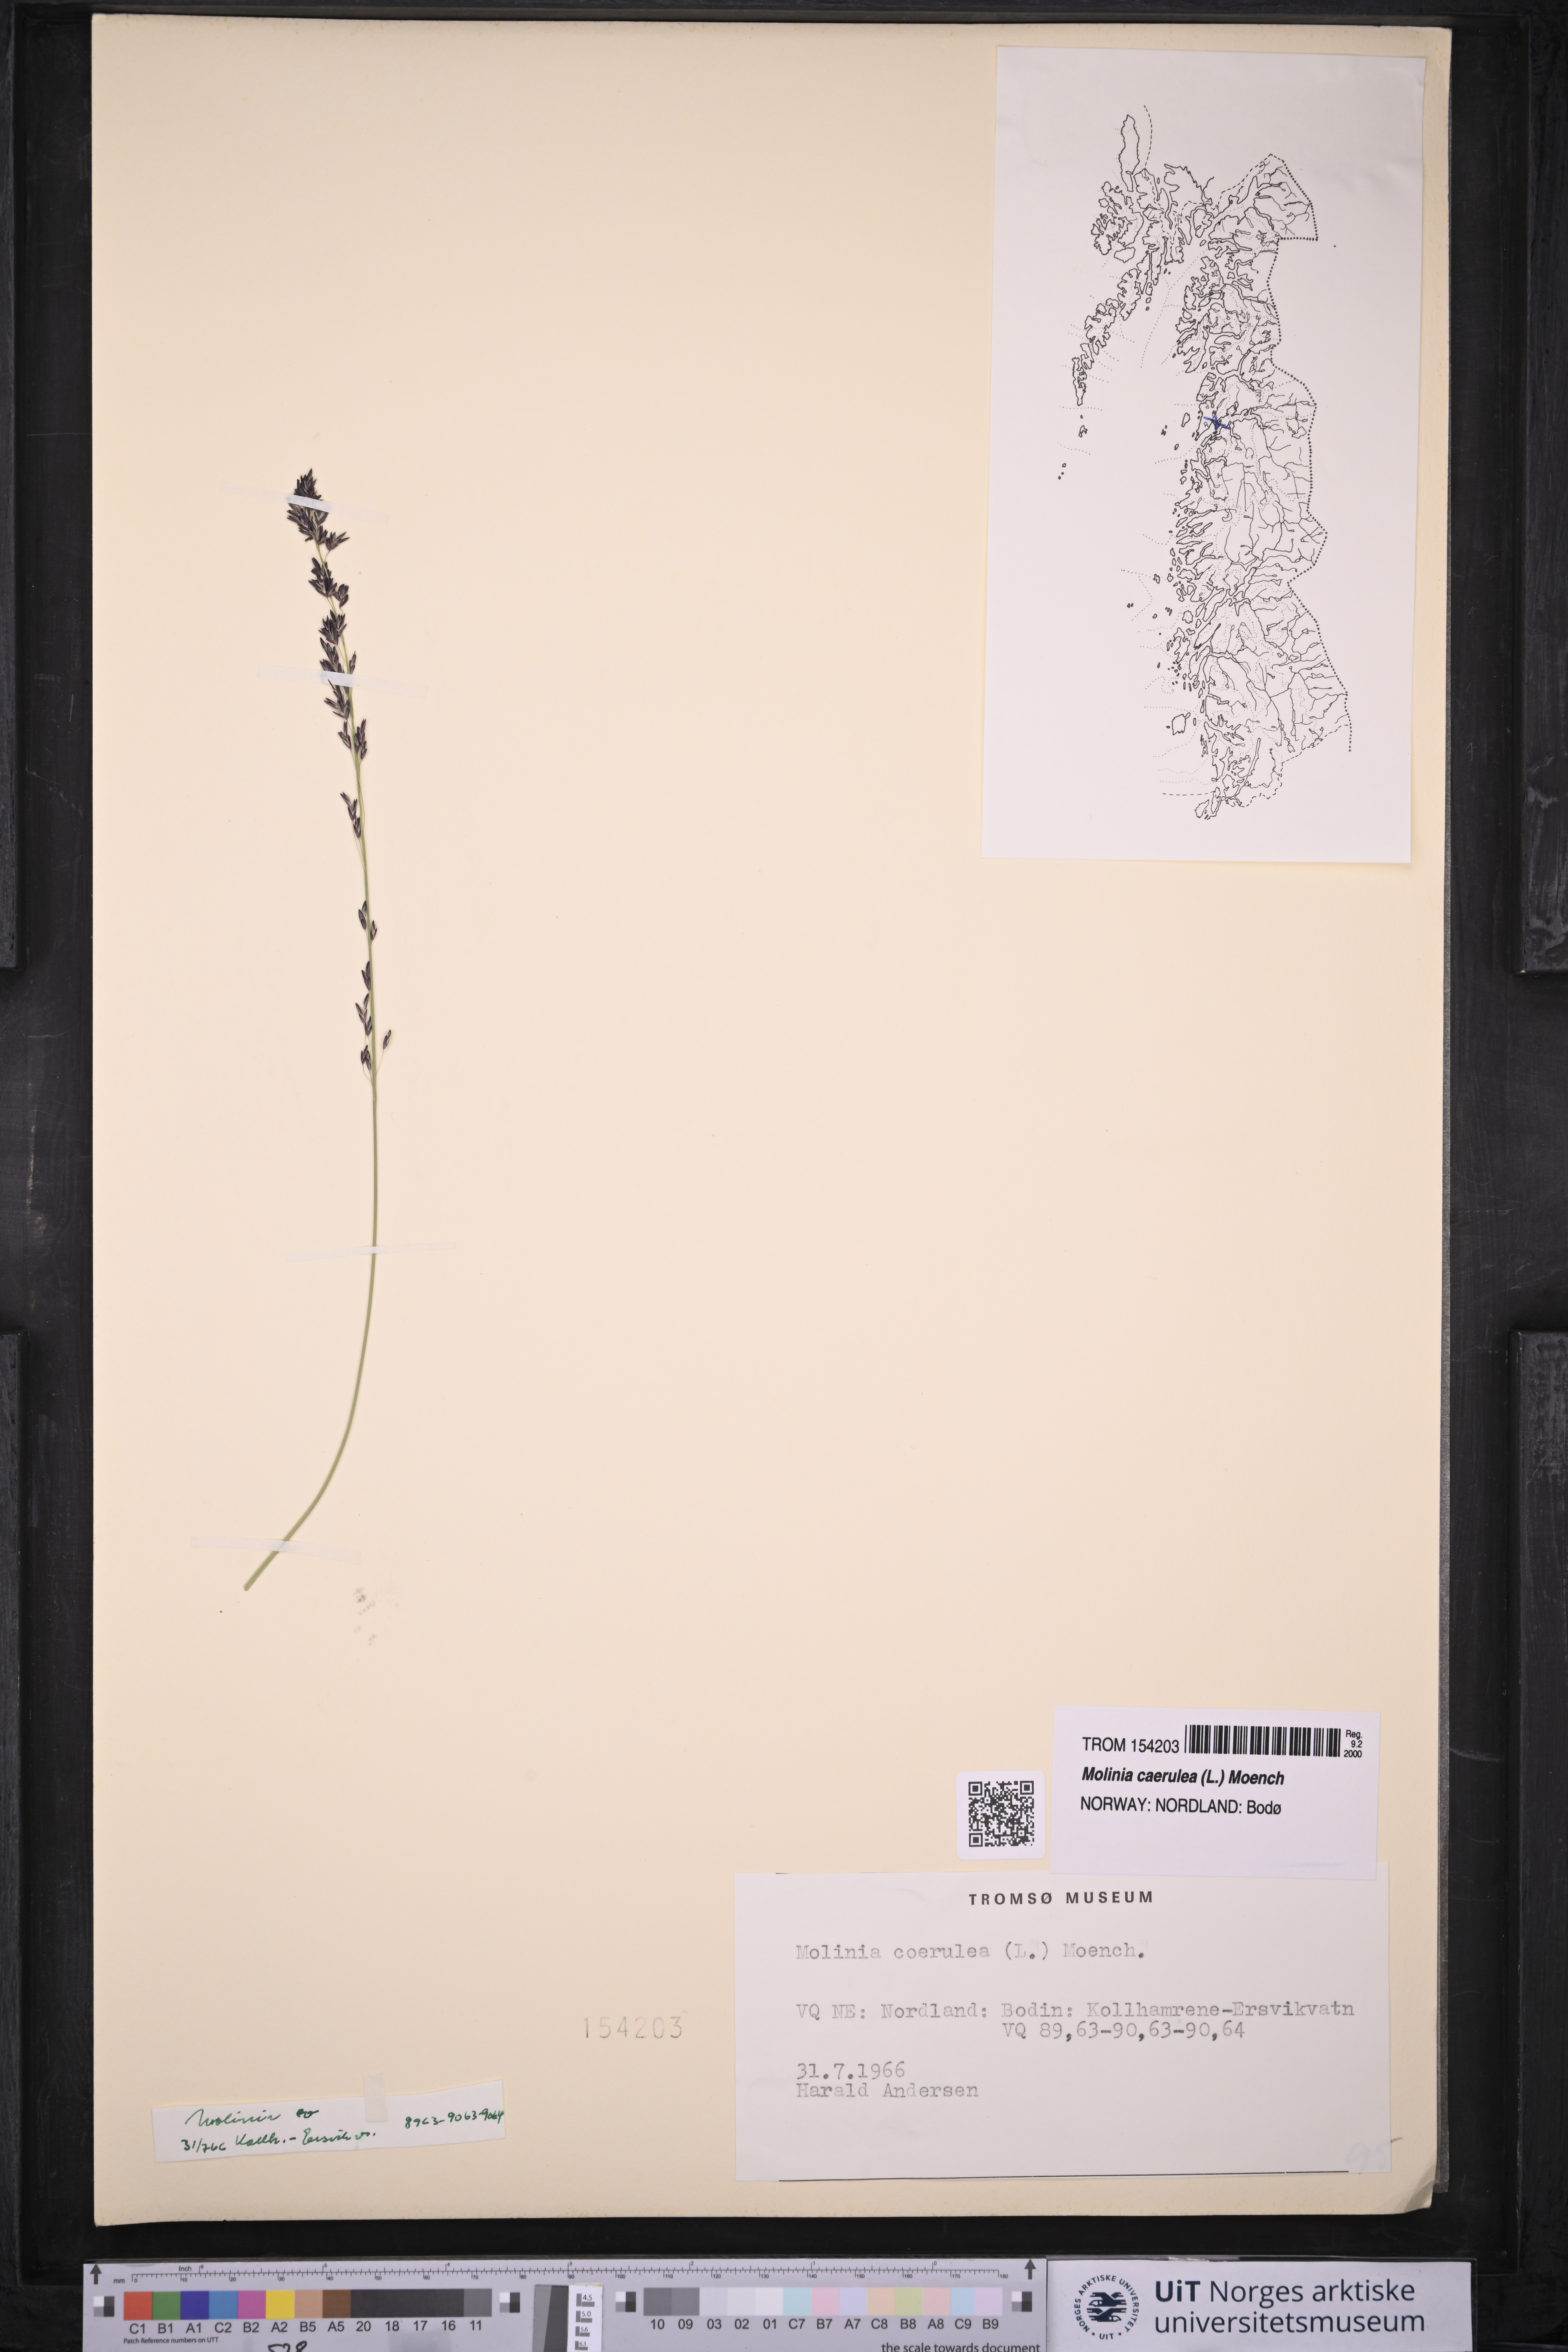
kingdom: Plantae
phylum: Tracheophyta
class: Liliopsida
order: Poales
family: Poaceae
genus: Molinia
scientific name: Molinia caerulea
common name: Purple moor-grass
